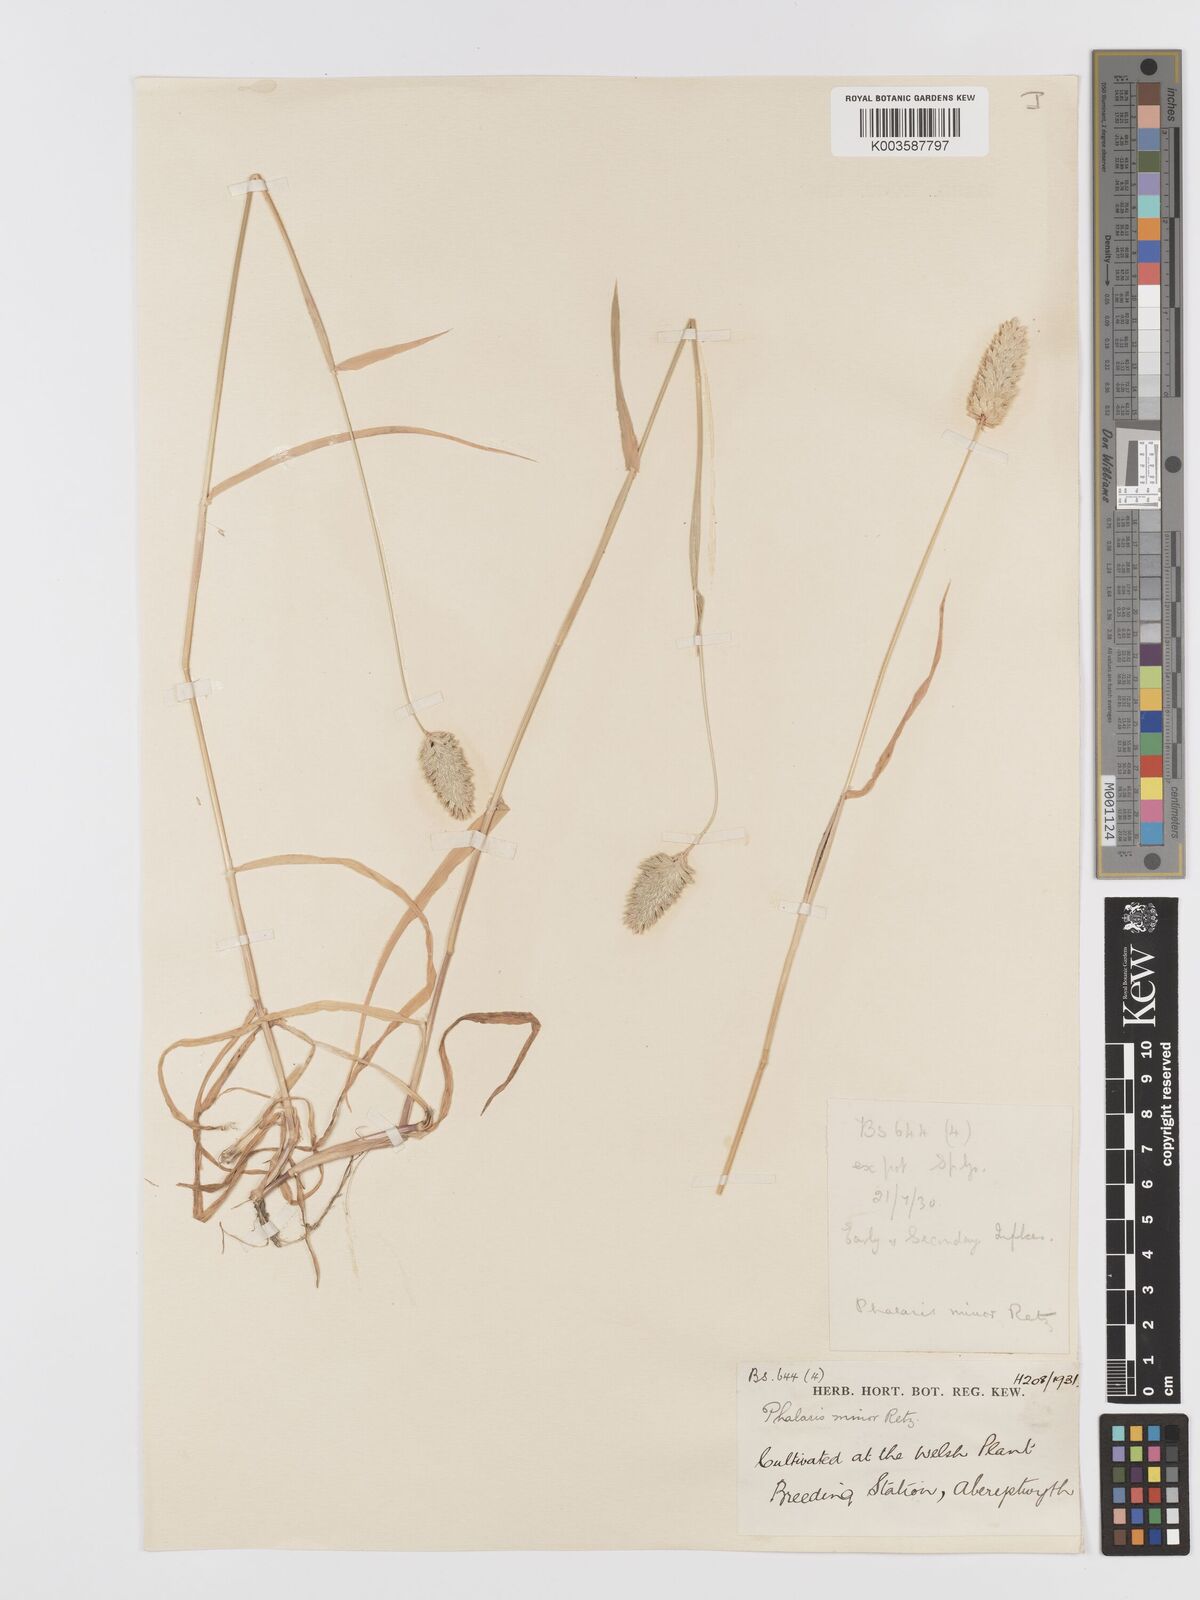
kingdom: Plantae
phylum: Tracheophyta
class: Liliopsida
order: Poales
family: Poaceae
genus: Phalaris
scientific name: Phalaris minor
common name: Littleseed canarygrass
